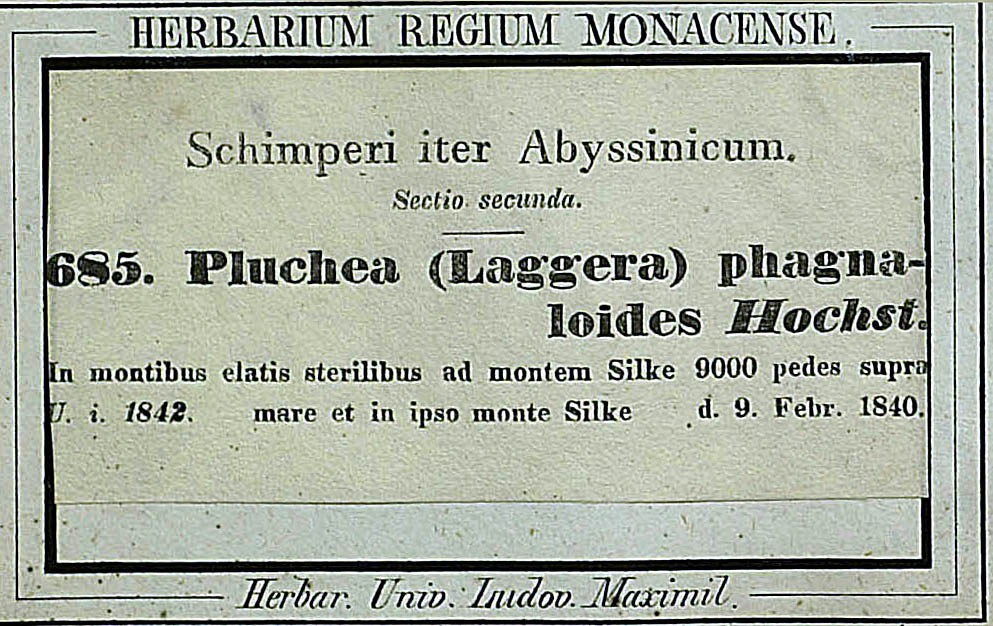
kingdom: Plantae
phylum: Tracheophyta
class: Magnoliopsida
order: Asterales
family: Asteraceae
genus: Phagnalon
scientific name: Phagnalon phagnaloides
